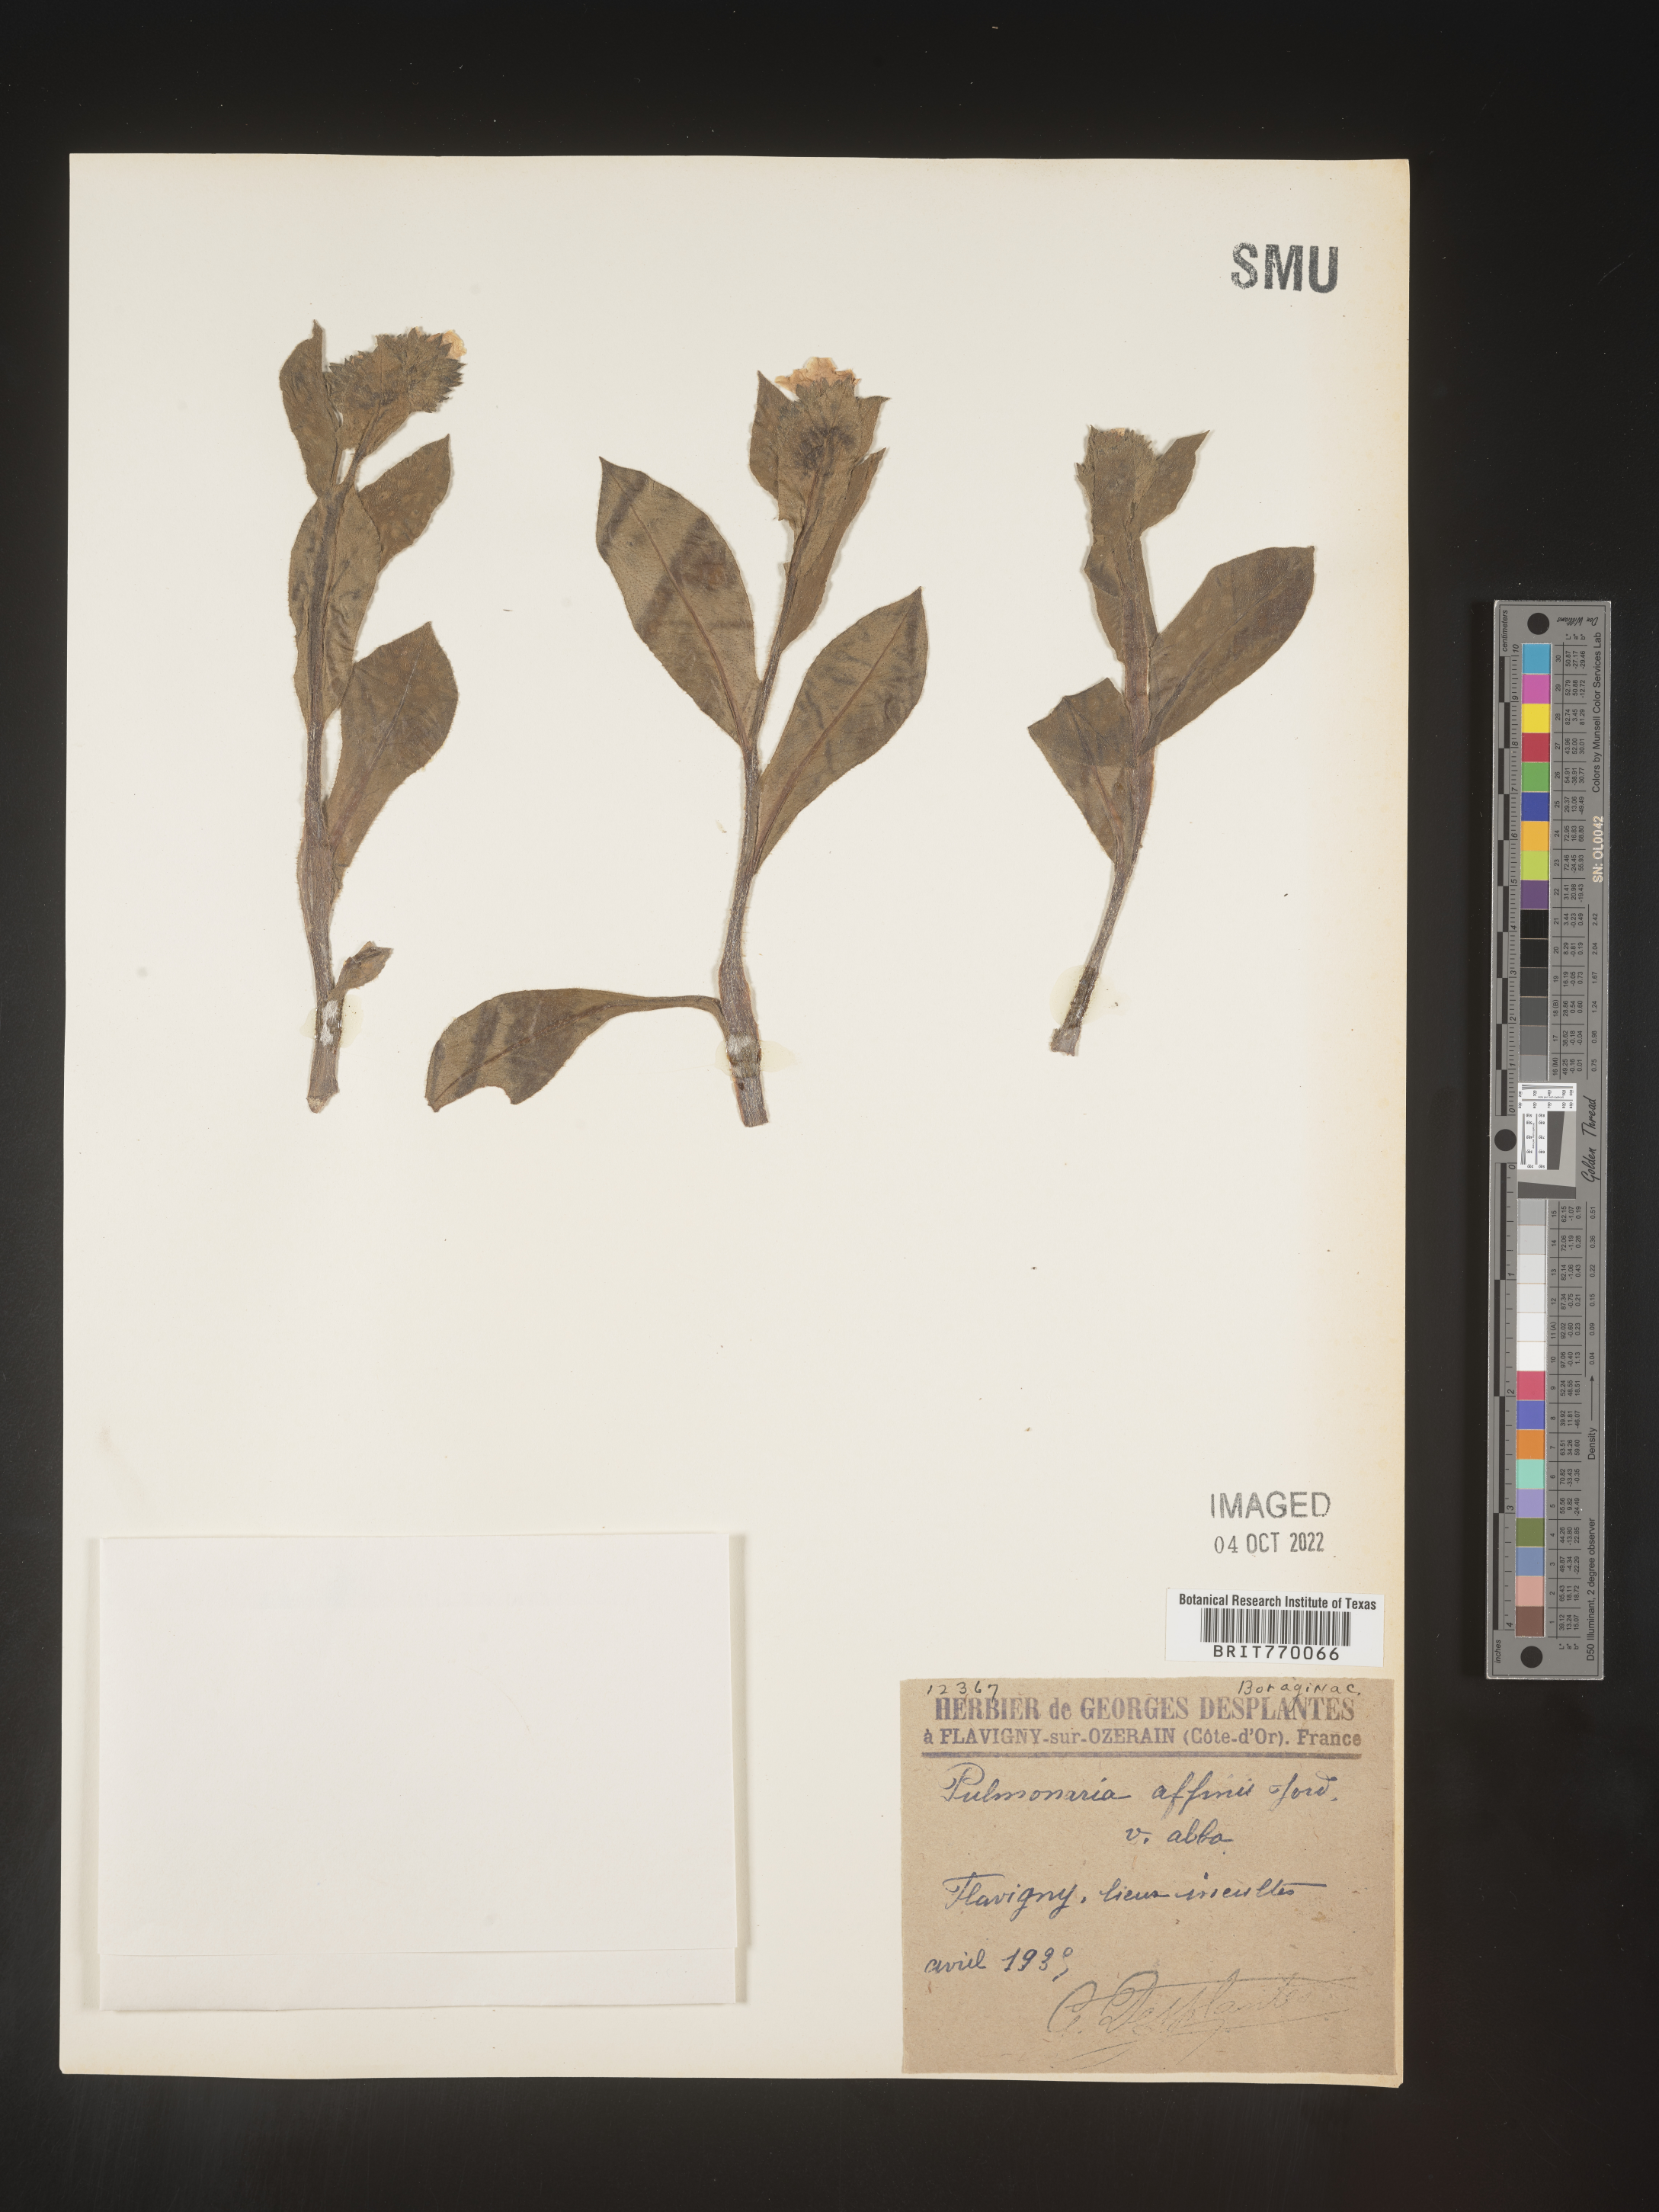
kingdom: Plantae
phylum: Tracheophyta
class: Magnoliopsida
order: Boraginales
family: Boraginaceae
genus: Pulmonaria
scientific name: Pulmonaria
